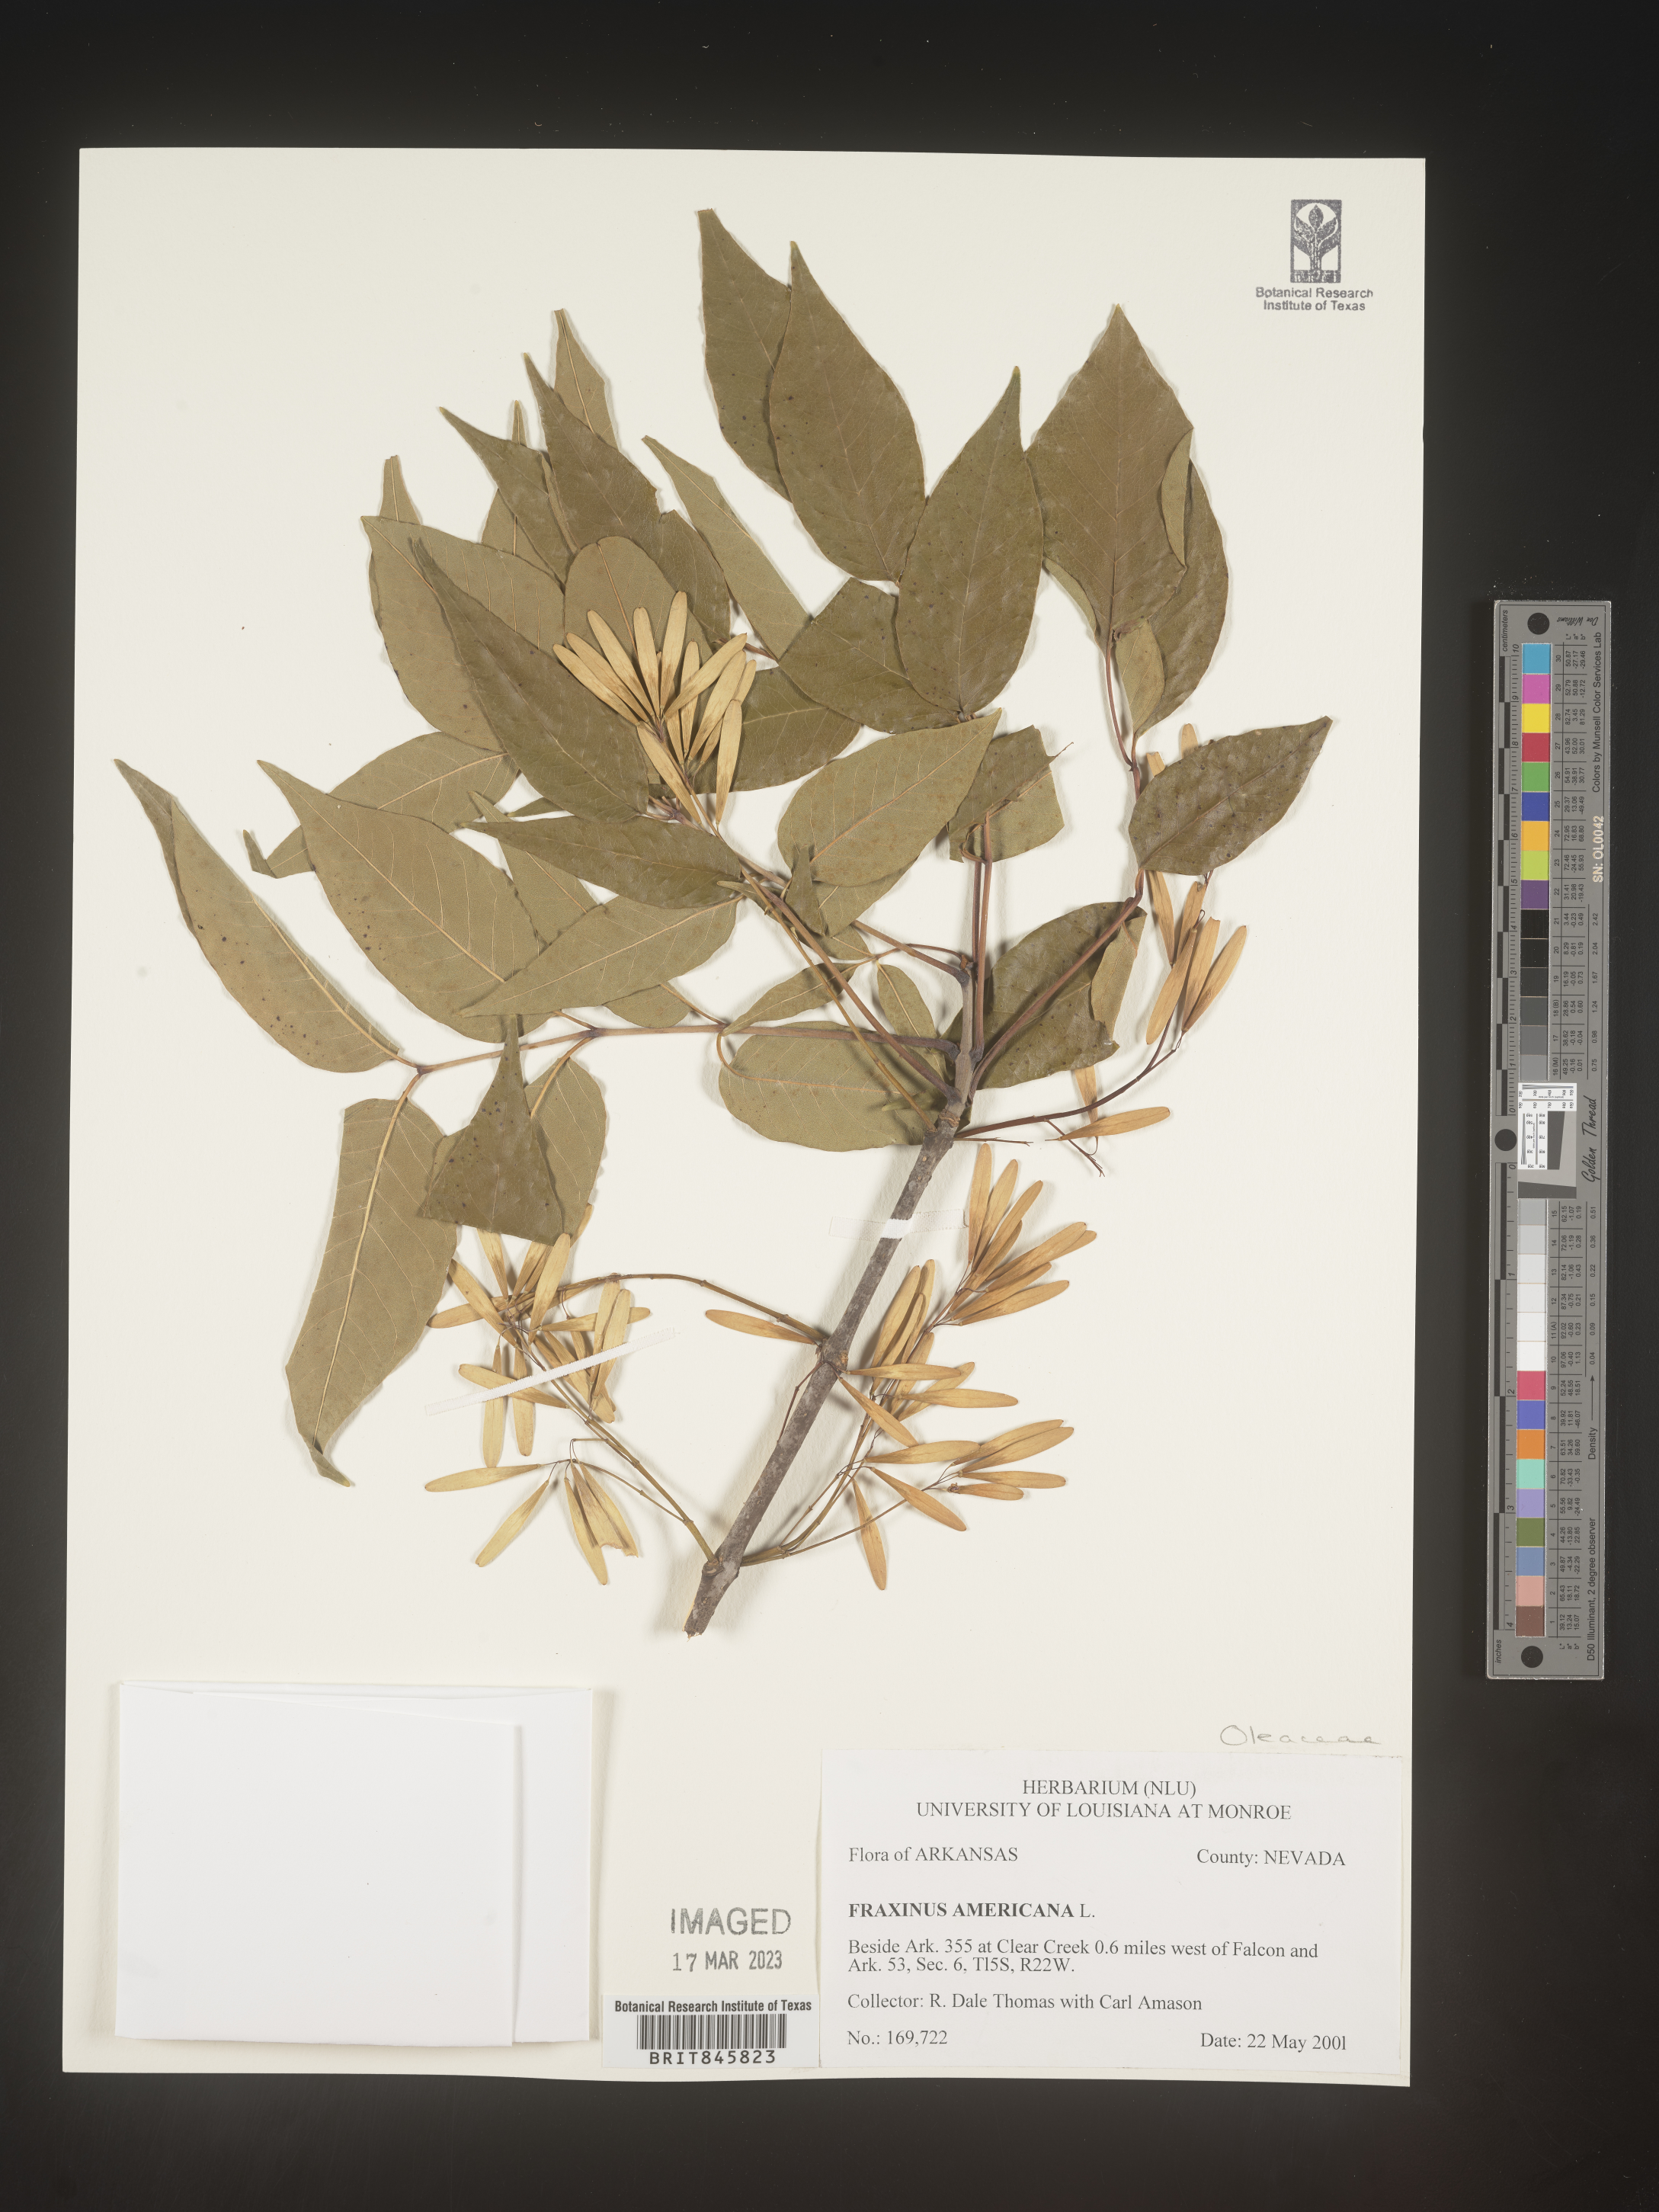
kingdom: Plantae
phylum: Tracheophyta
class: Magnoliopsida
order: Lamiales
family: Oleaceae
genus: Fraxinus
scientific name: Fraxinus americana
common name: White ash
